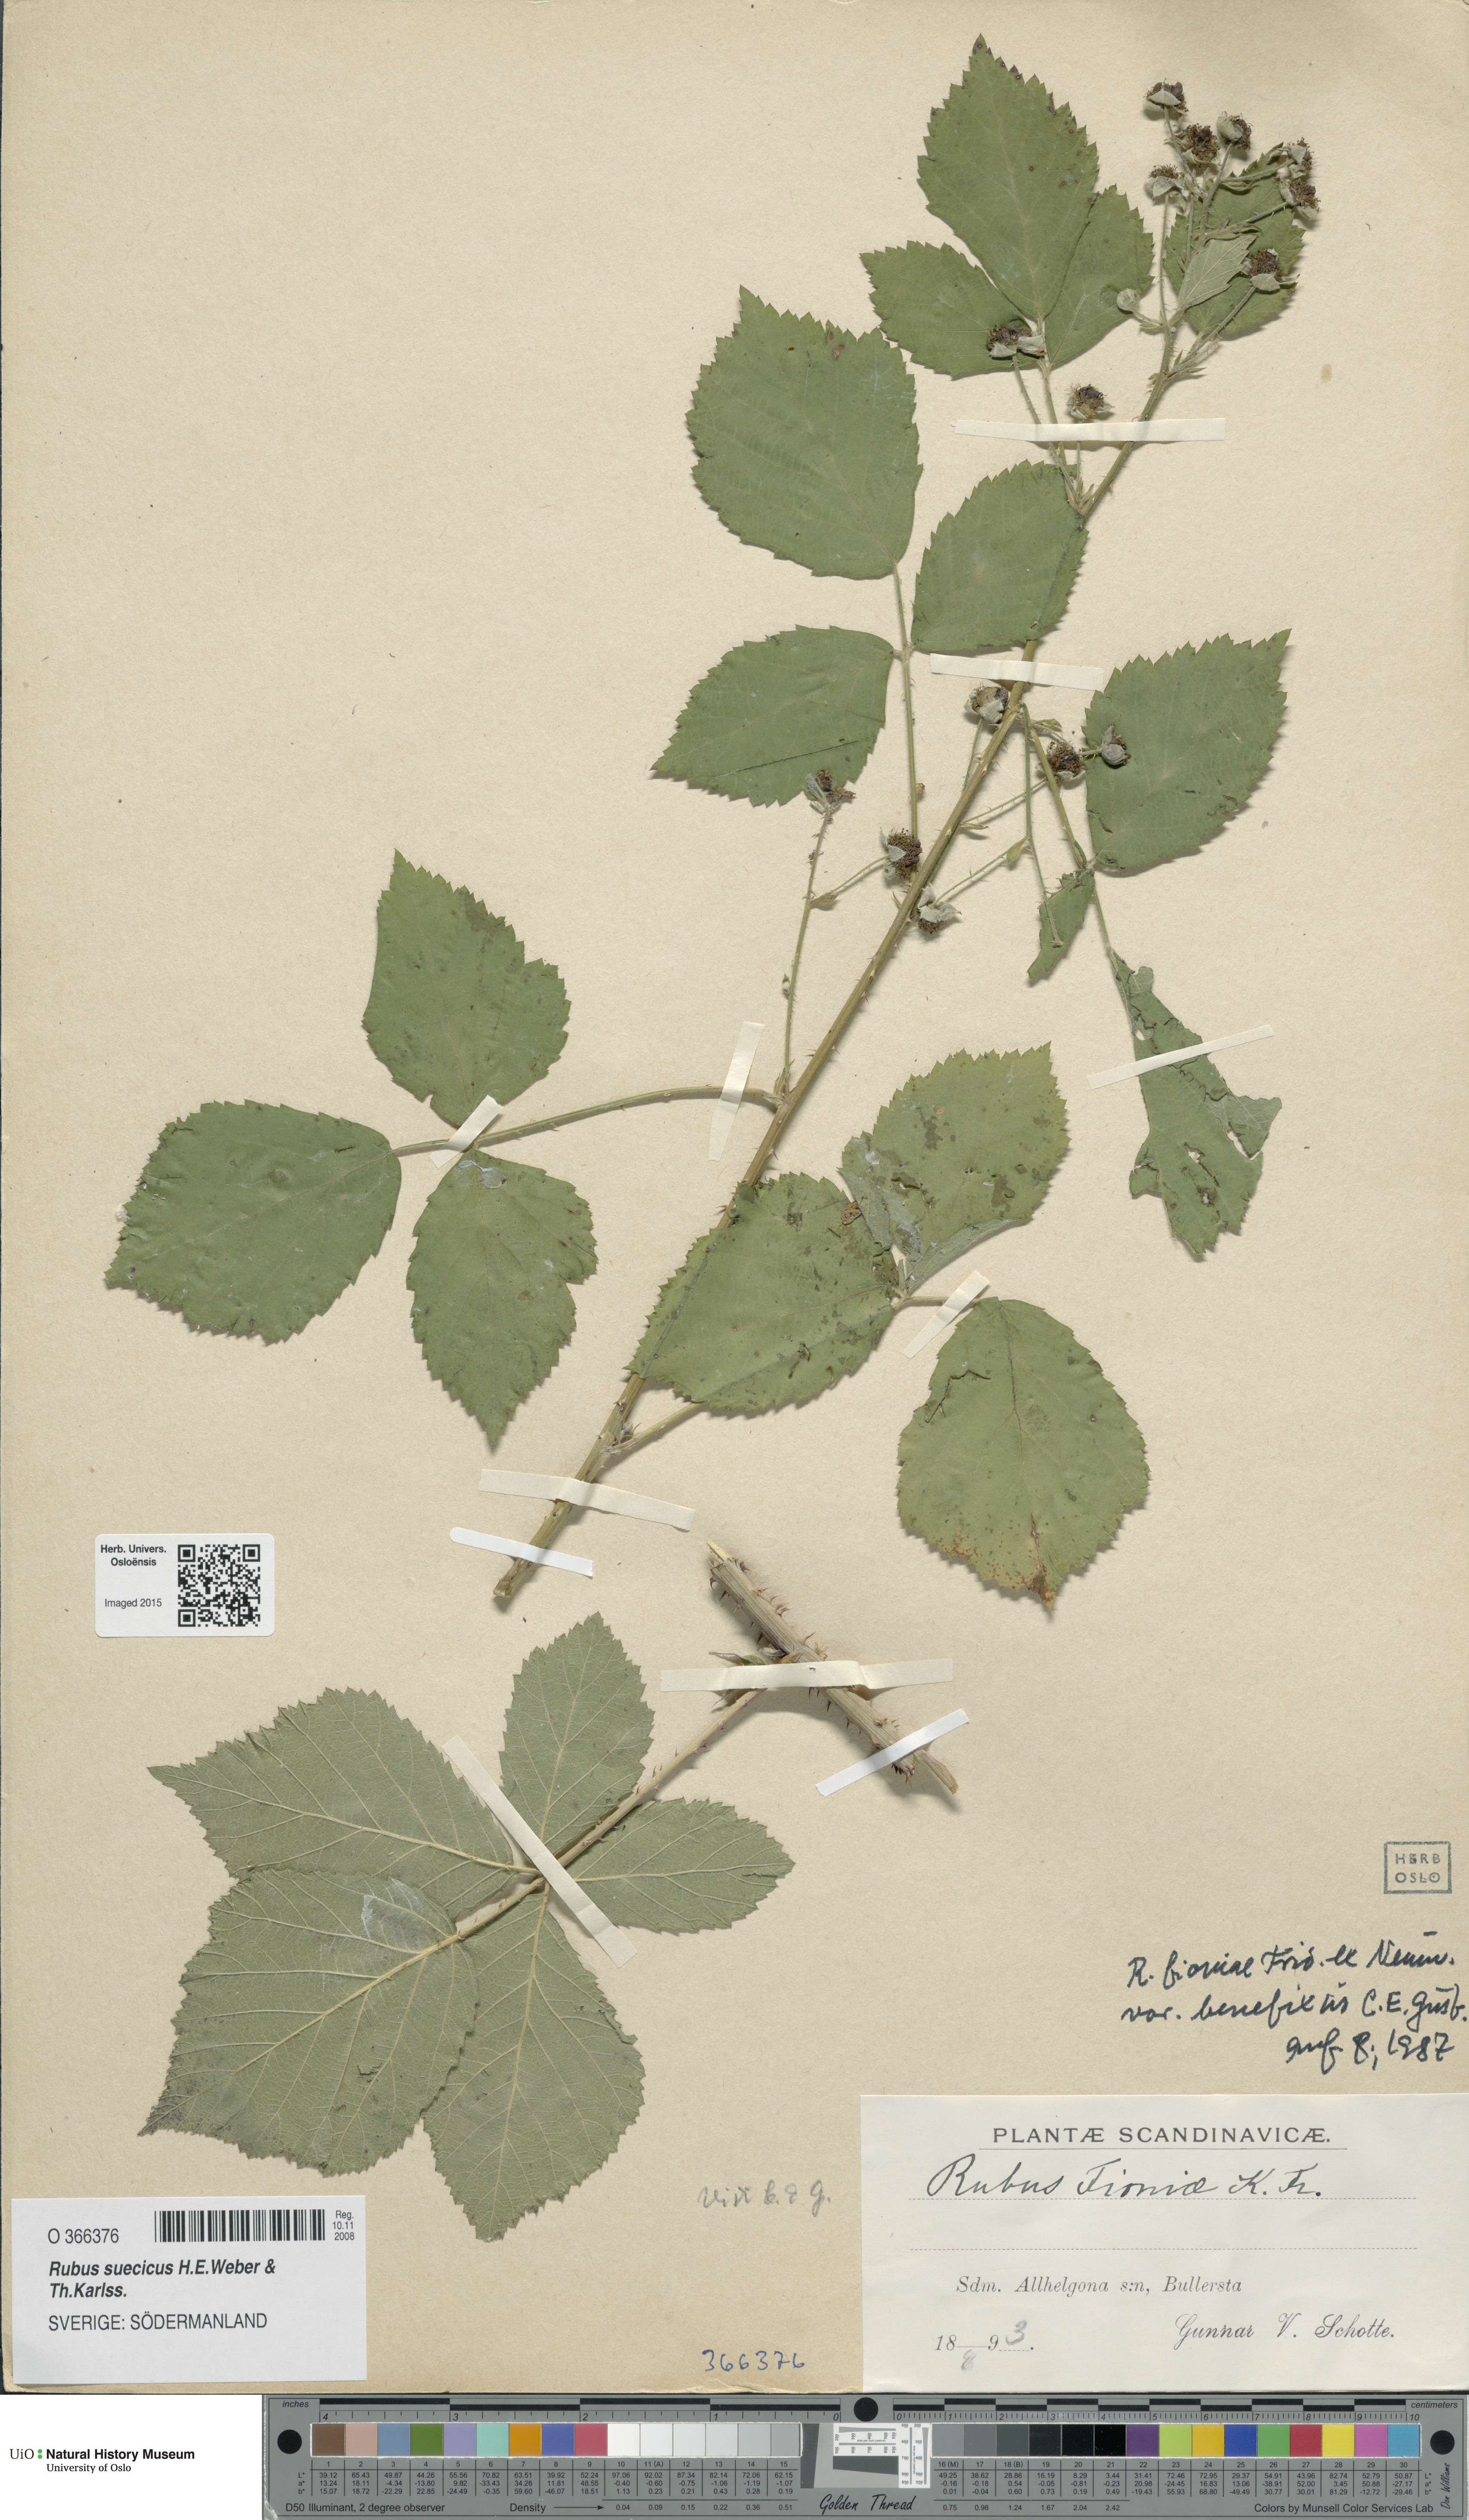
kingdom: Plantae
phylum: Tracheophyta
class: Magnoliopsida
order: Rosales
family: Rosaceae
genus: Rubus
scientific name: Rubus suecicus
